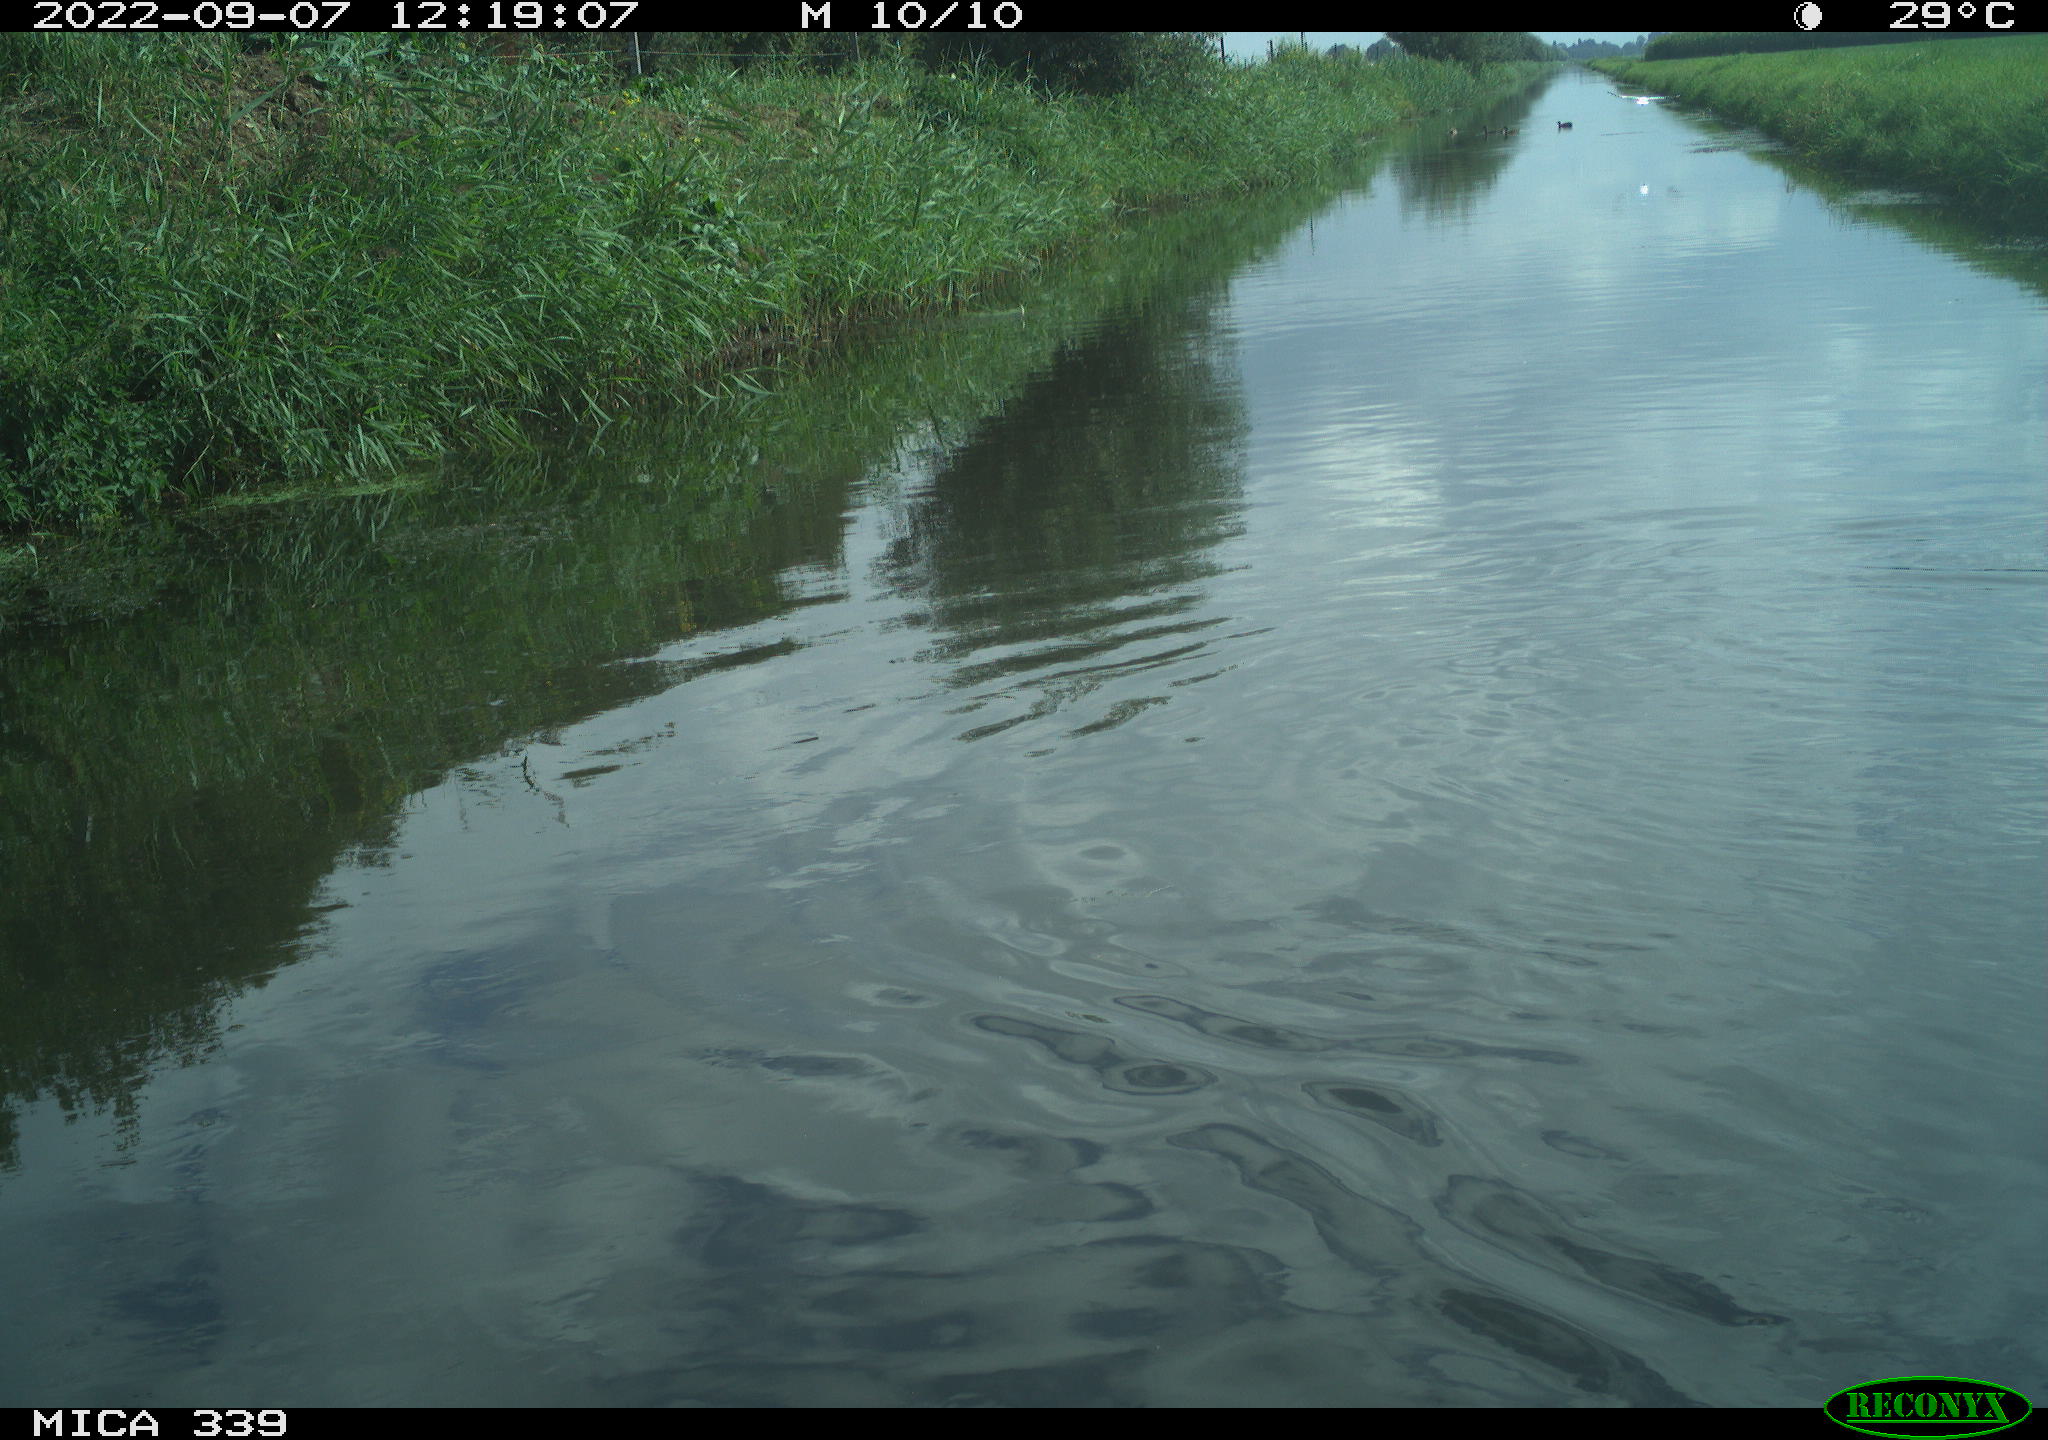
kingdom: Animalia
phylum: Chordata
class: Aves
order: Charadriiformes
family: Laridae
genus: Chroicocephalus
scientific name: Chroicocephalus ridibundus
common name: Black-headed gull
